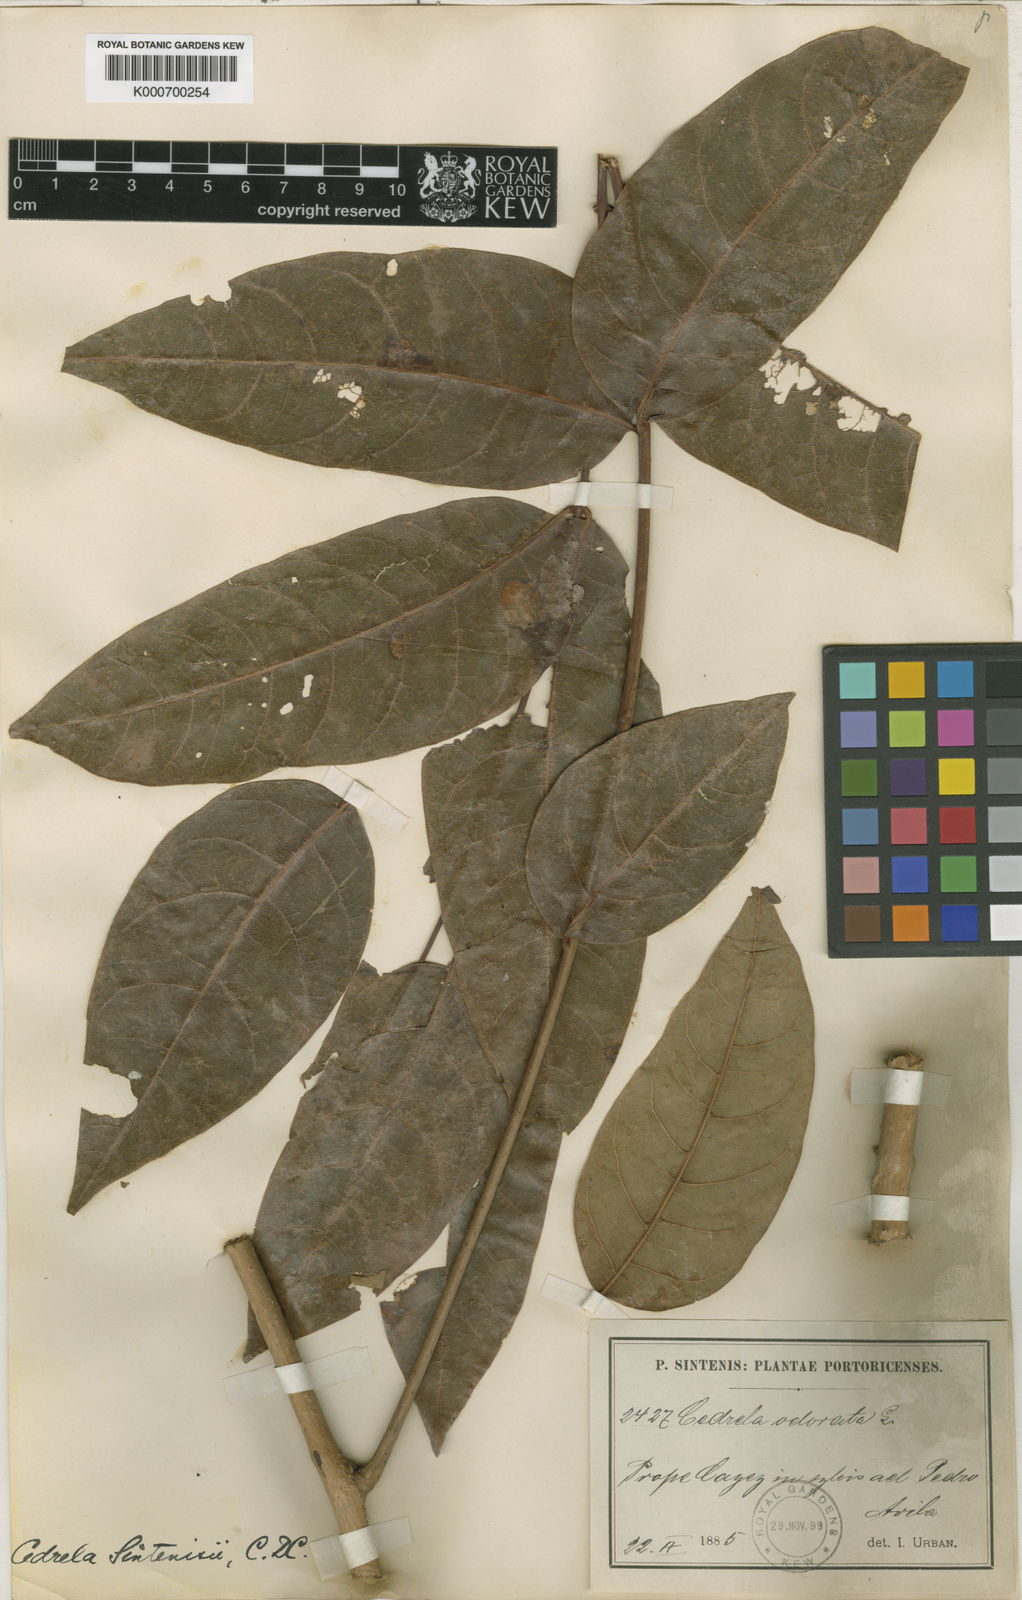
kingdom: Plantae
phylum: Tracheophyta
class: Magnoliopsida
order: Sapindales
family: Meliaceae
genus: Cedrela
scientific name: Cedrela odorata
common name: Red cedar
